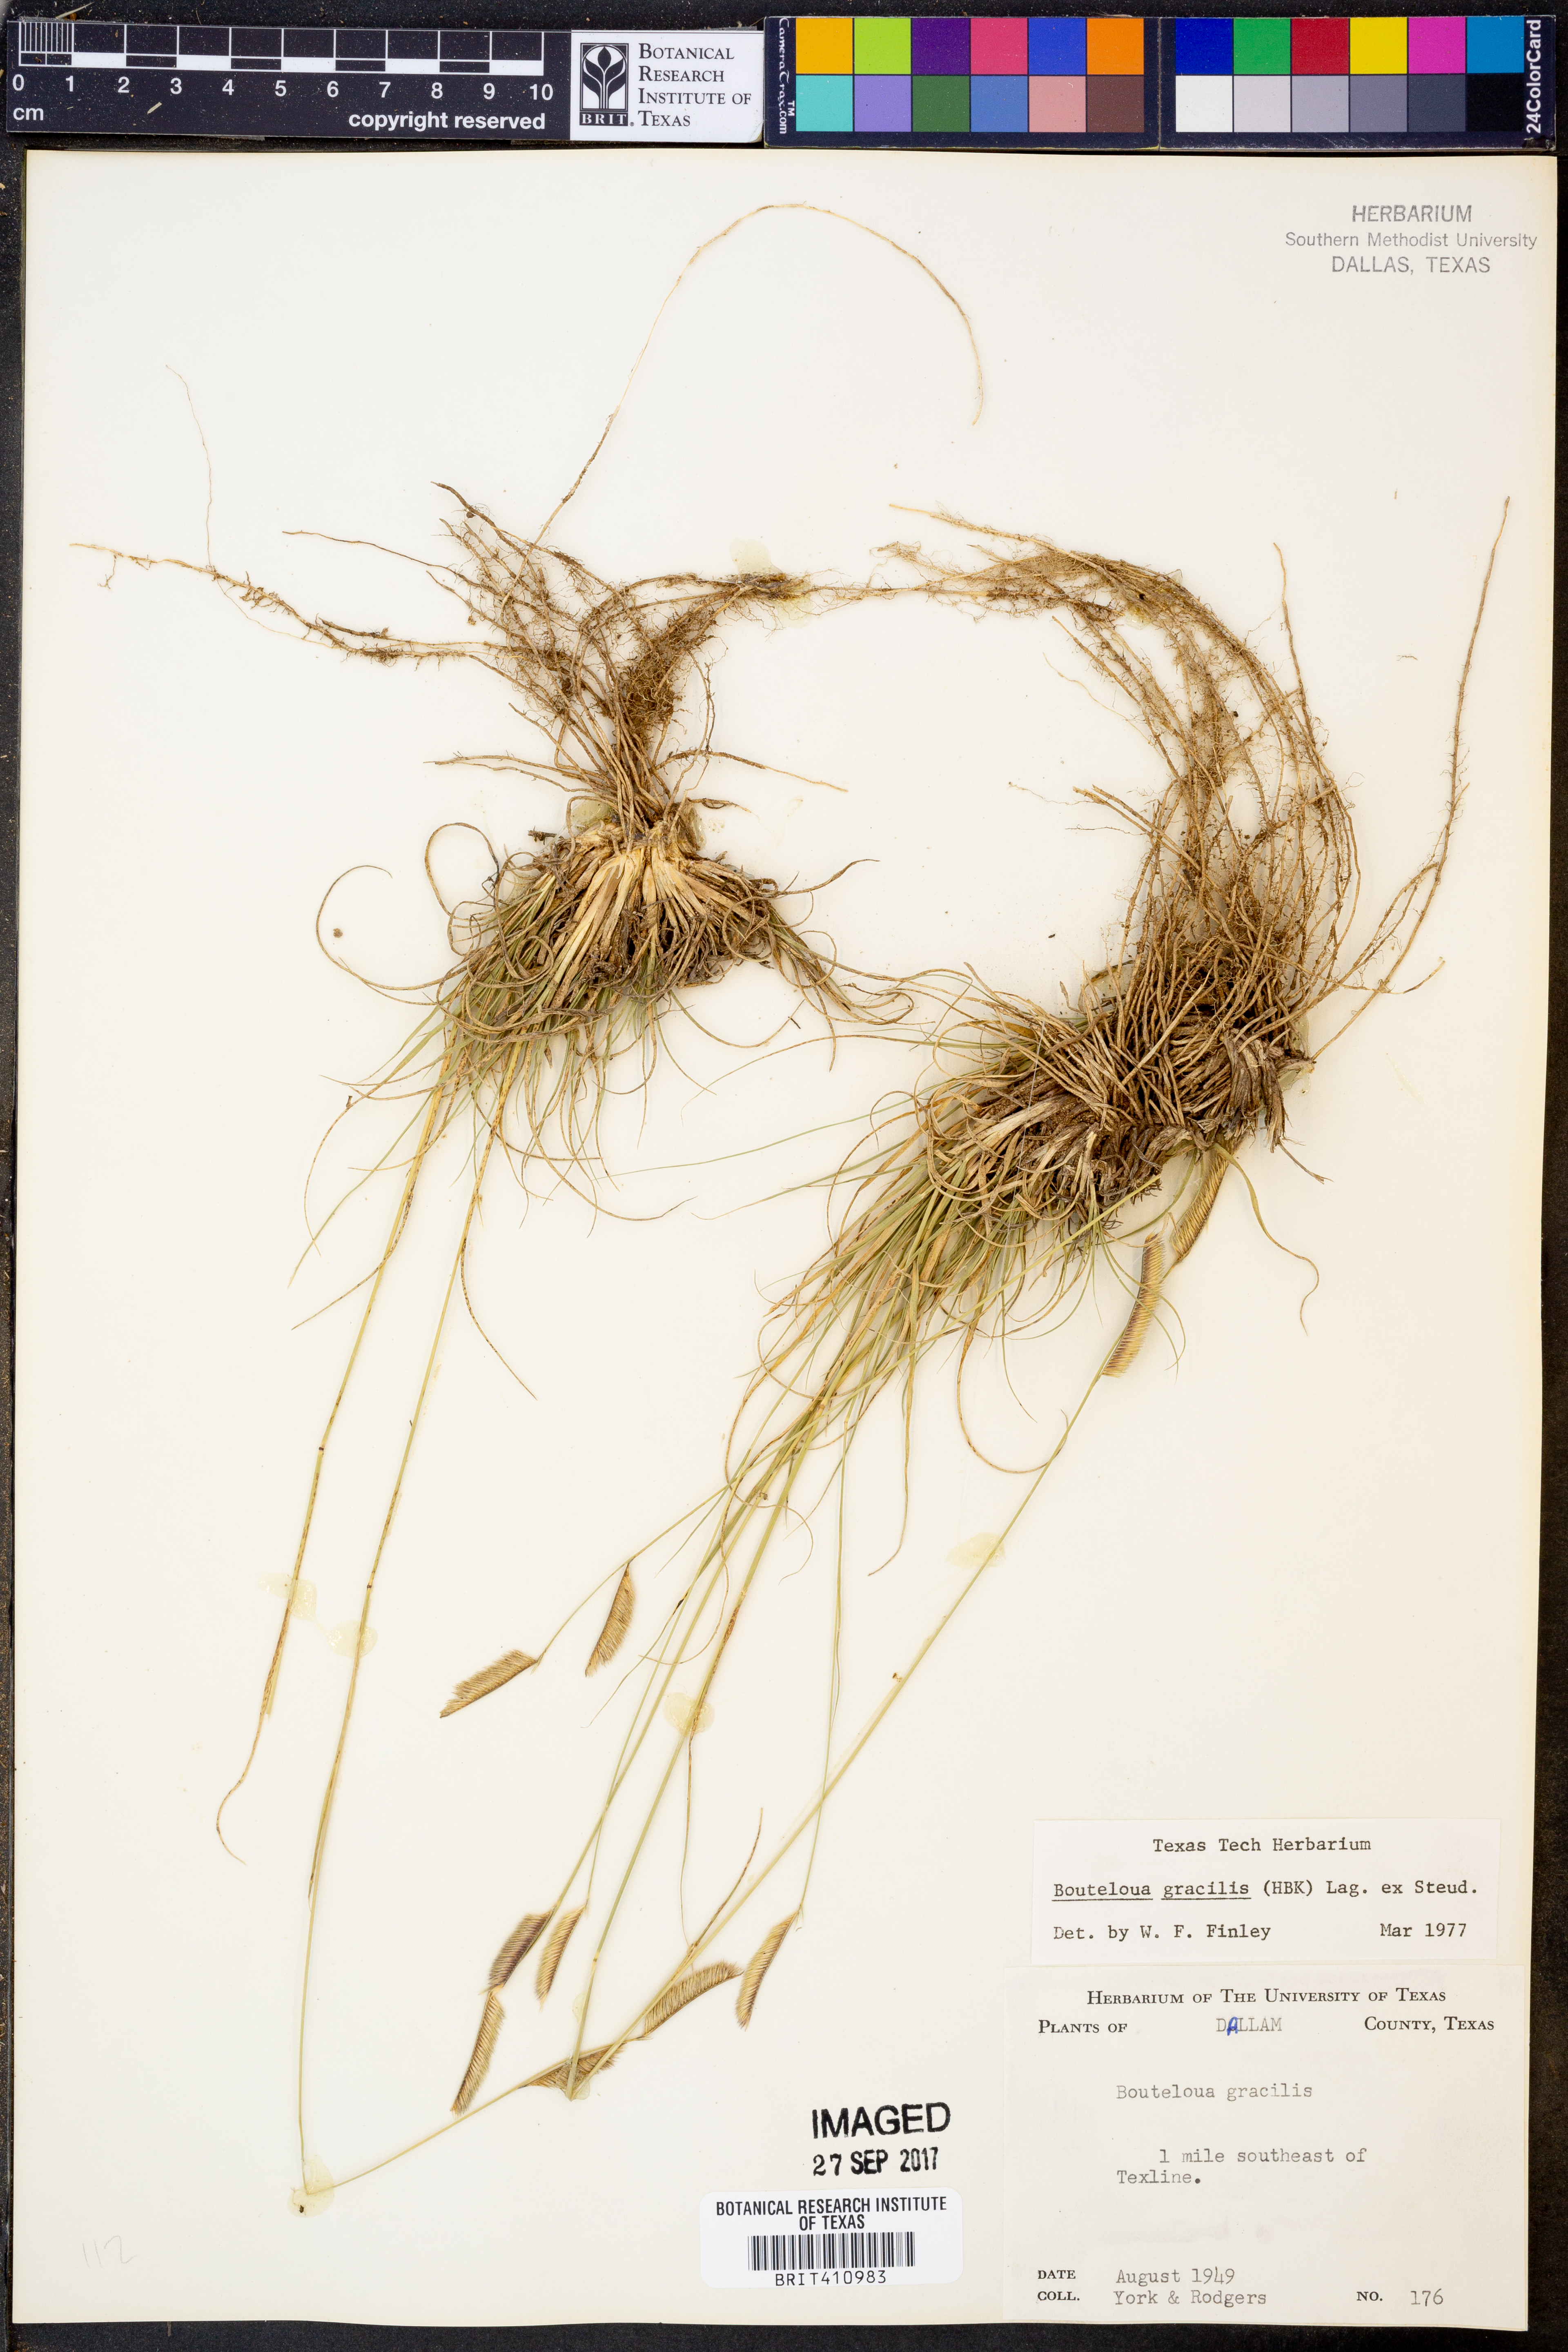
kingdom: Plantae
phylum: Tracheophyta
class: Liliopsida
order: Poales
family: Poaceae
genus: Bouteloua
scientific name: Bouteloua gracilis
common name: Blue grama
